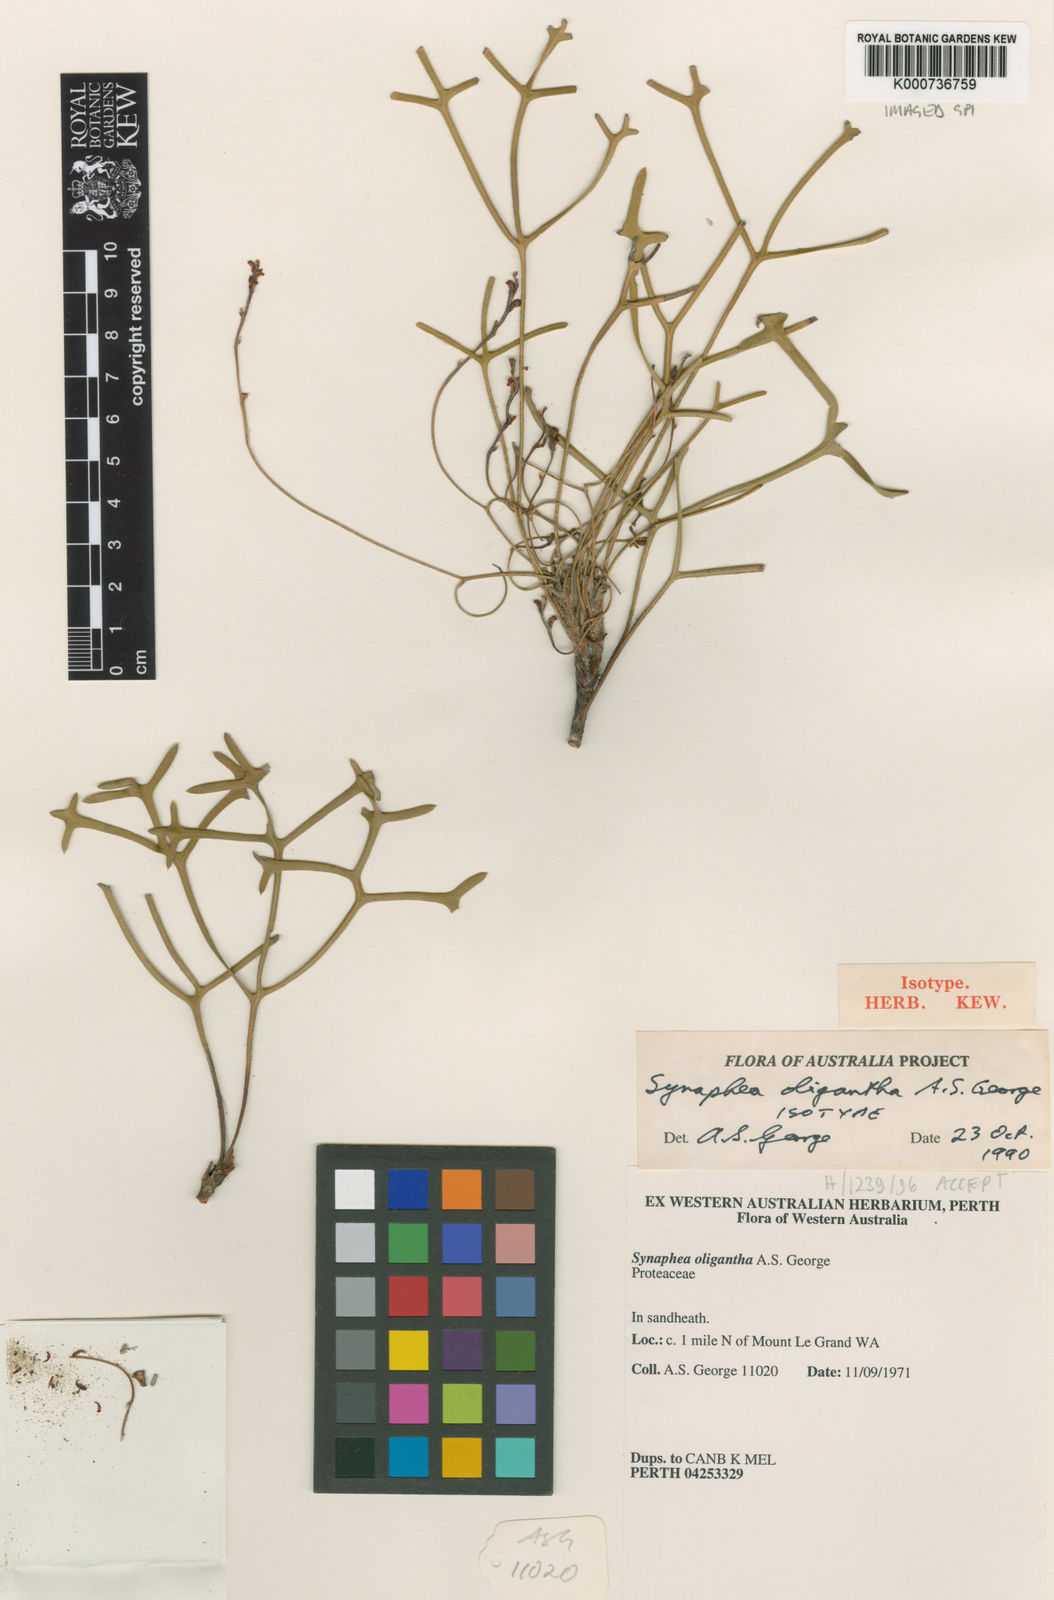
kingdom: Plantae
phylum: Tracheophyta
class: Magnoliopsida
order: Proteales
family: Proteaceae
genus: Synaphea
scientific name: Synaphea oligantha
